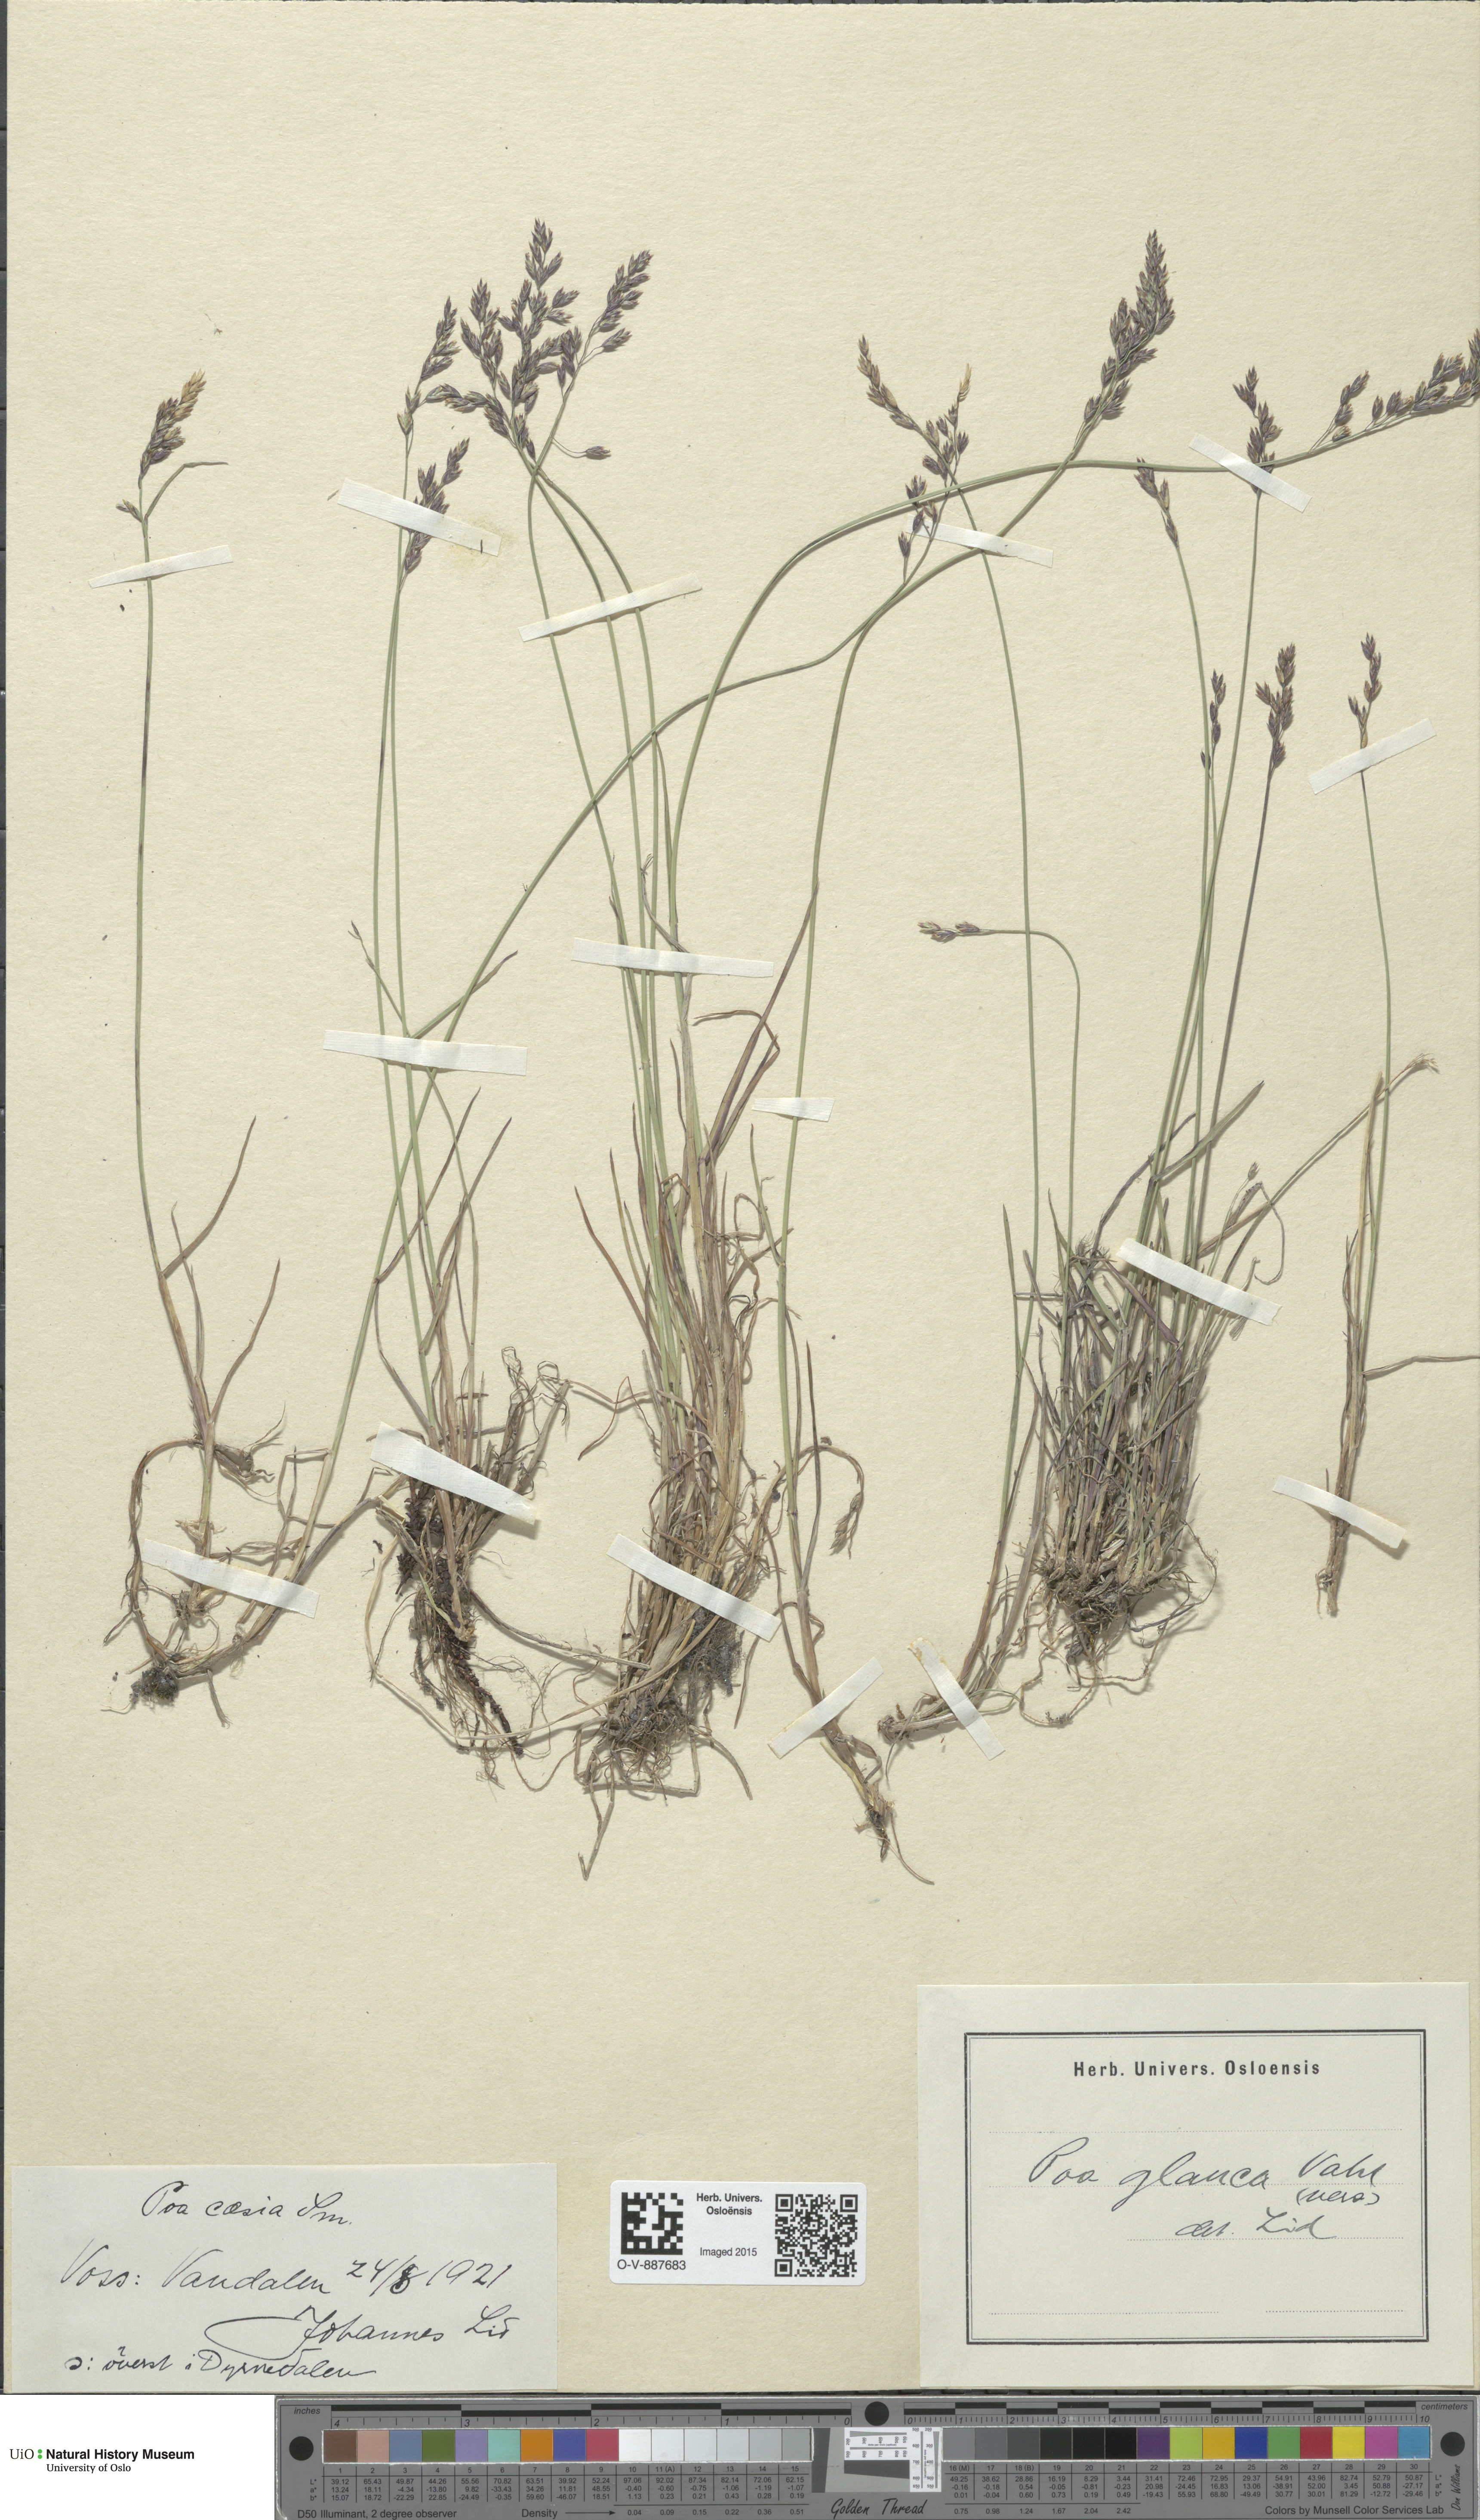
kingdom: Plantae
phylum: Tracheophyta
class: Liliopsida
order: Poales
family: Poaceae
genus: Poa
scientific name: Poa glauca
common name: Glaucous bluegrass
